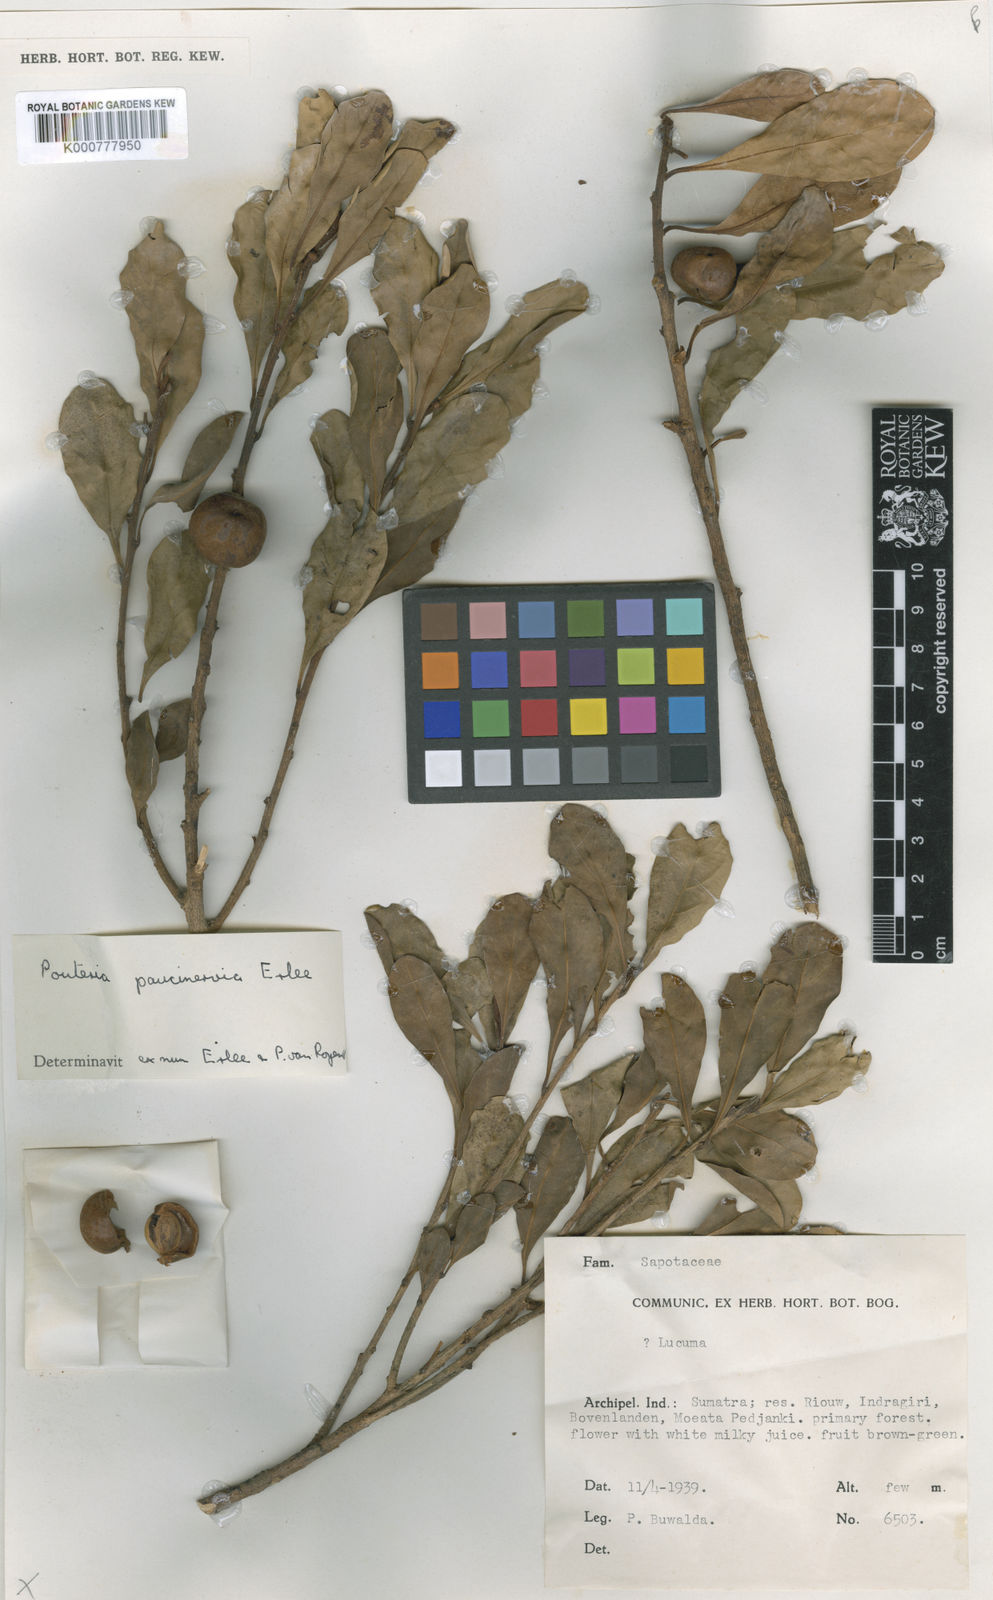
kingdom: Plantae
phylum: Tracheophyta
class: Magnoliopsida
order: Ericales
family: Sapotaceae
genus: Planchonella
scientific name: Planchonella obovata
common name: Black-ash
